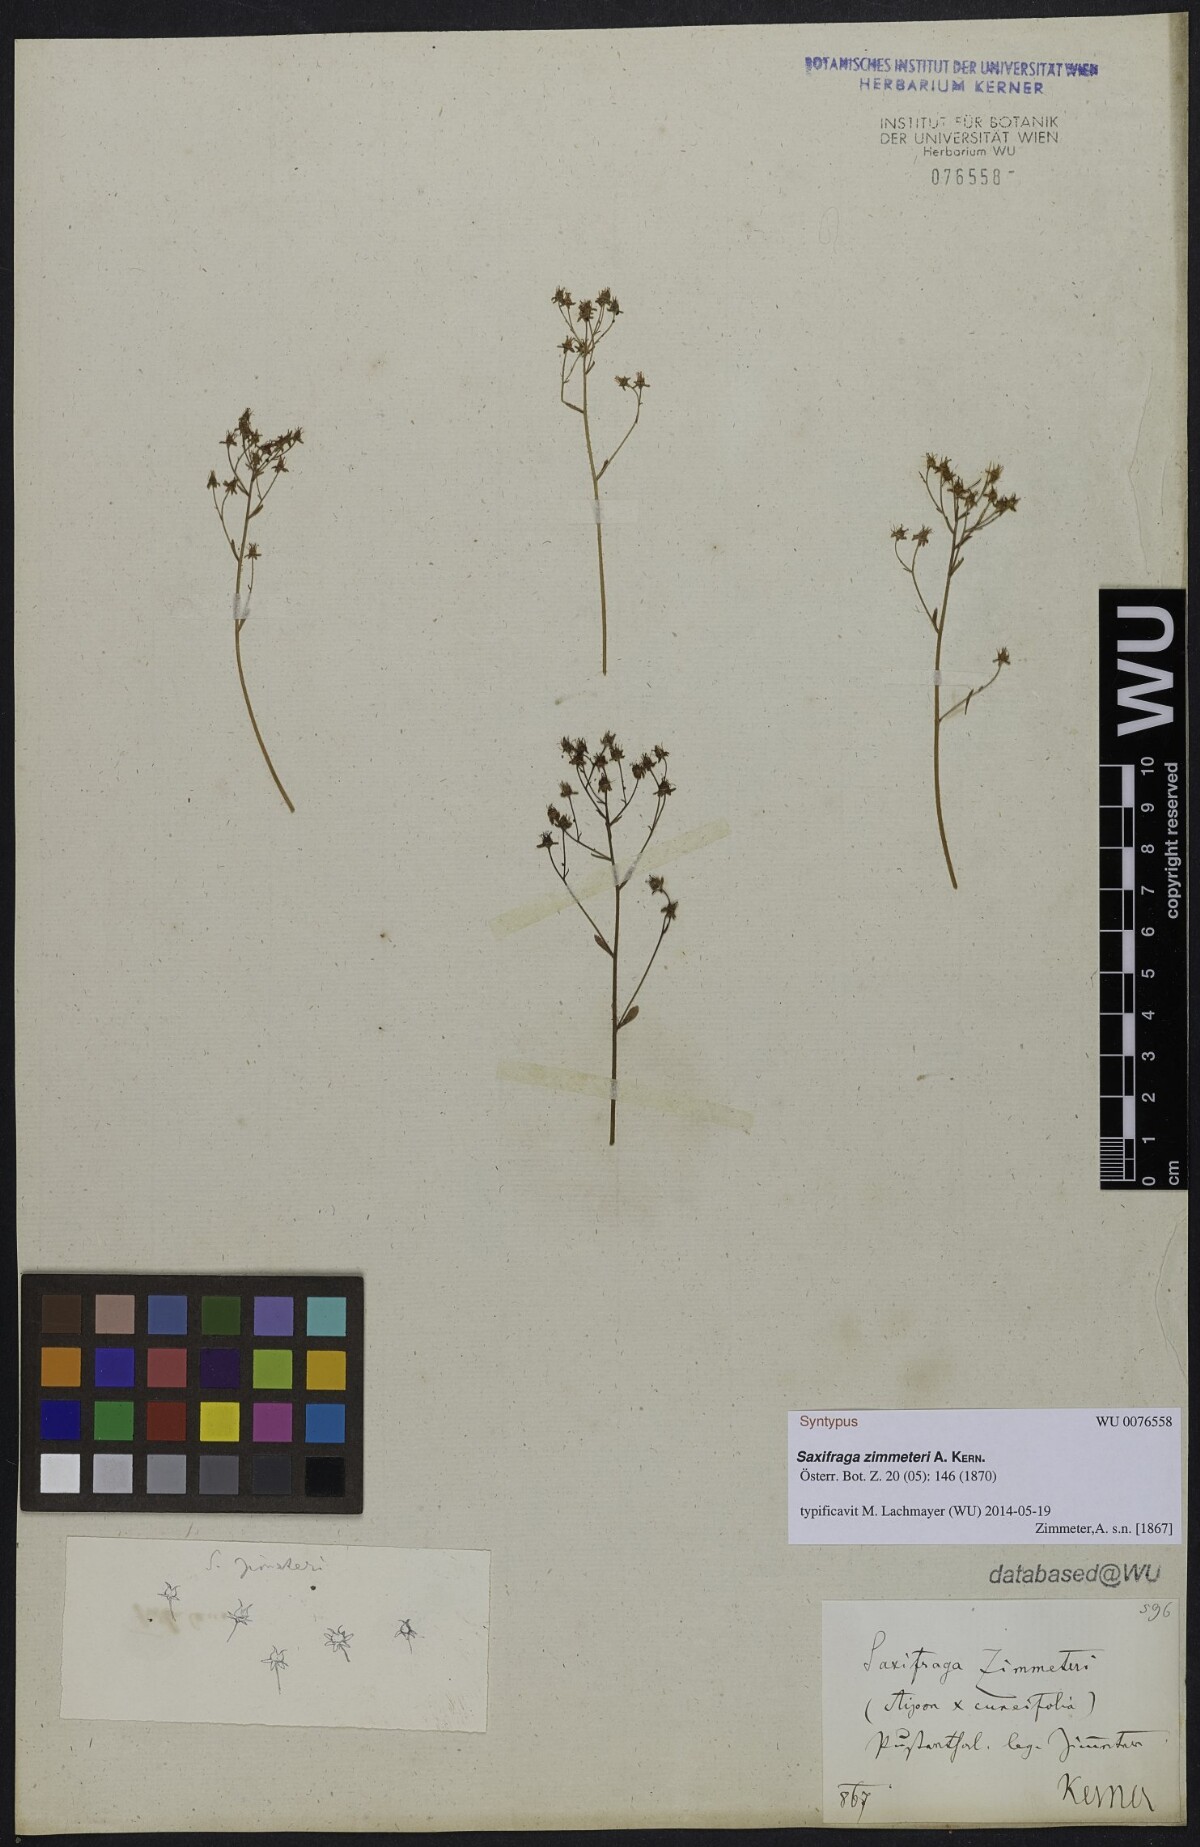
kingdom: Plantae
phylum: Tracheophyta
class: Magnoliopsida
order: Saxifragales
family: Saxifragaceae
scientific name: Saxifragaceae
